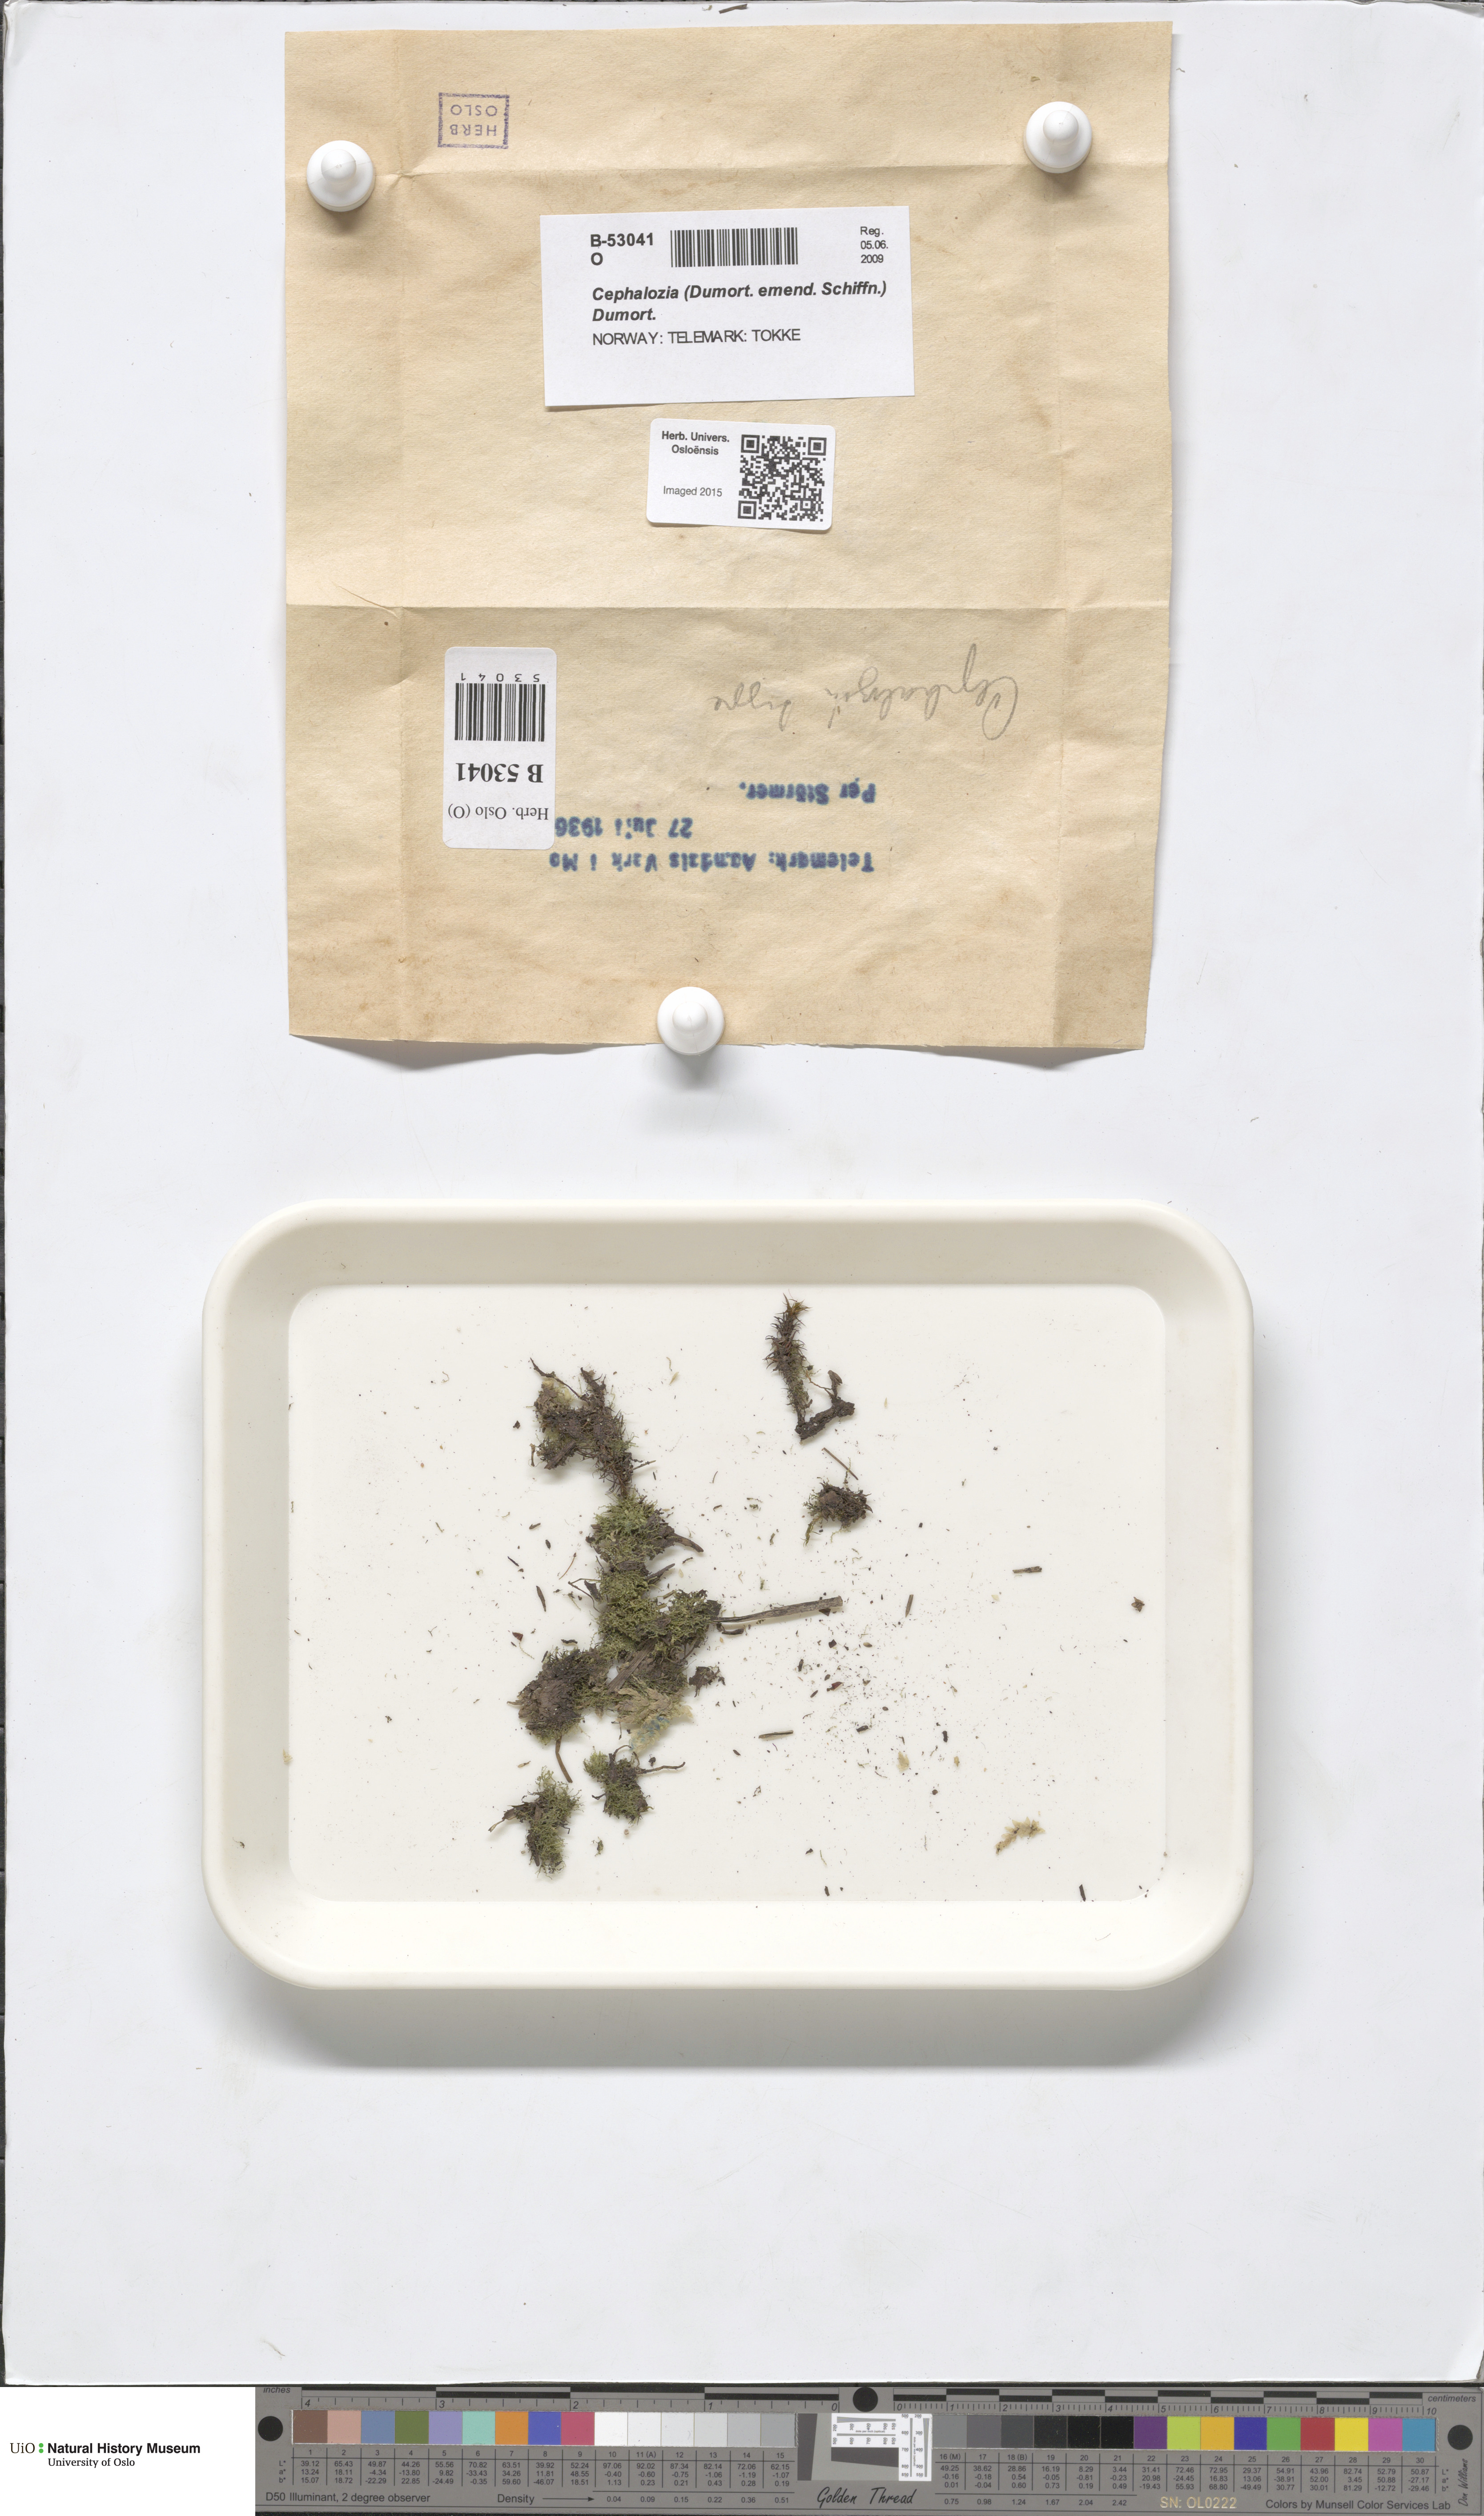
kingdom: Plantae
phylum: Marchantiophyta
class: Jungermanniopsida
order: Jungermanniales
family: Cephaloziaceae
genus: Cephalozia
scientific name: Cephalozia
